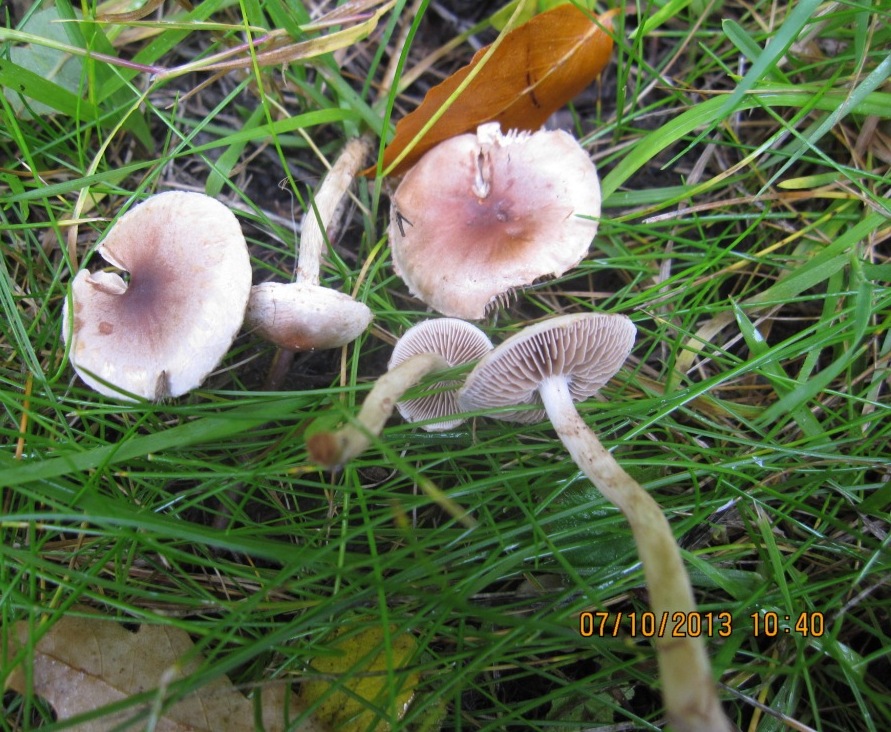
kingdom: Fungi
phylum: Basidiomycota
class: Agaricomycetes
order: Agaricales
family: Hymenogastraceae
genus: Hebeloma
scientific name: Hebeloma mesophaeum
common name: lerbrun tåreblad
